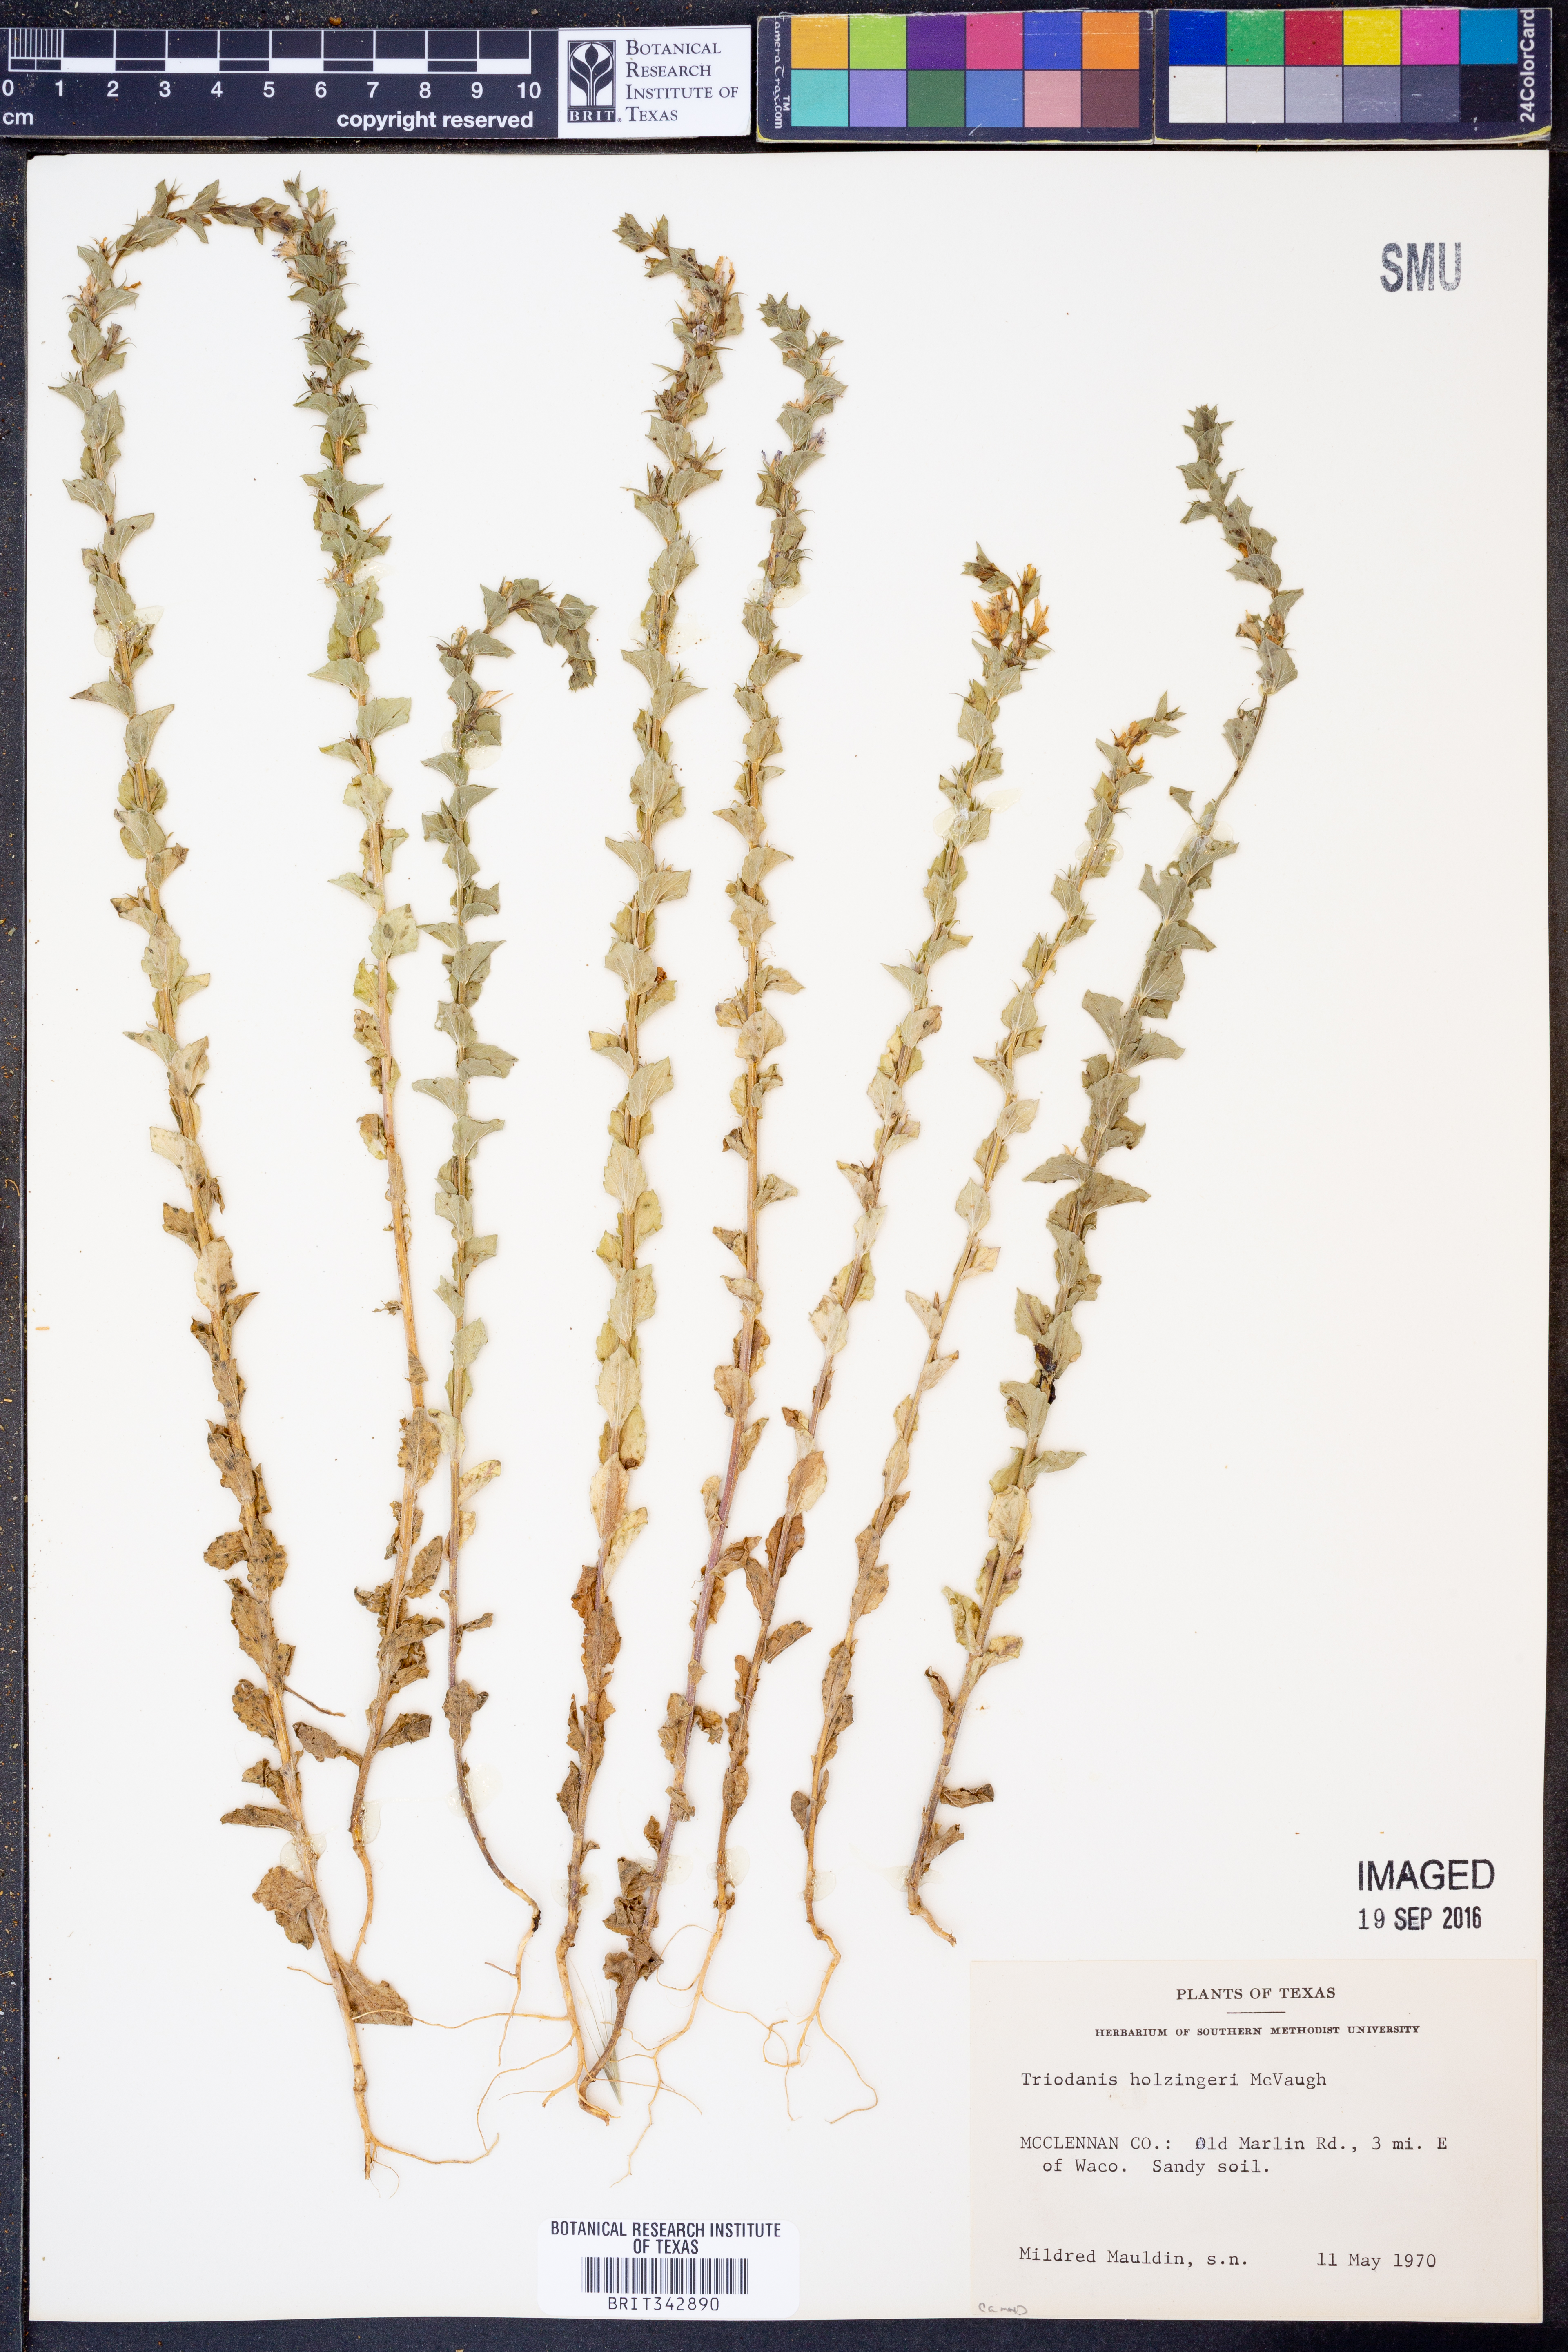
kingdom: Plantae
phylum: Tracheophyta
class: Magnoliopsida
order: Asterales
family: Campanulaceae
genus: Triodanis
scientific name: Triodanis holzingeri
